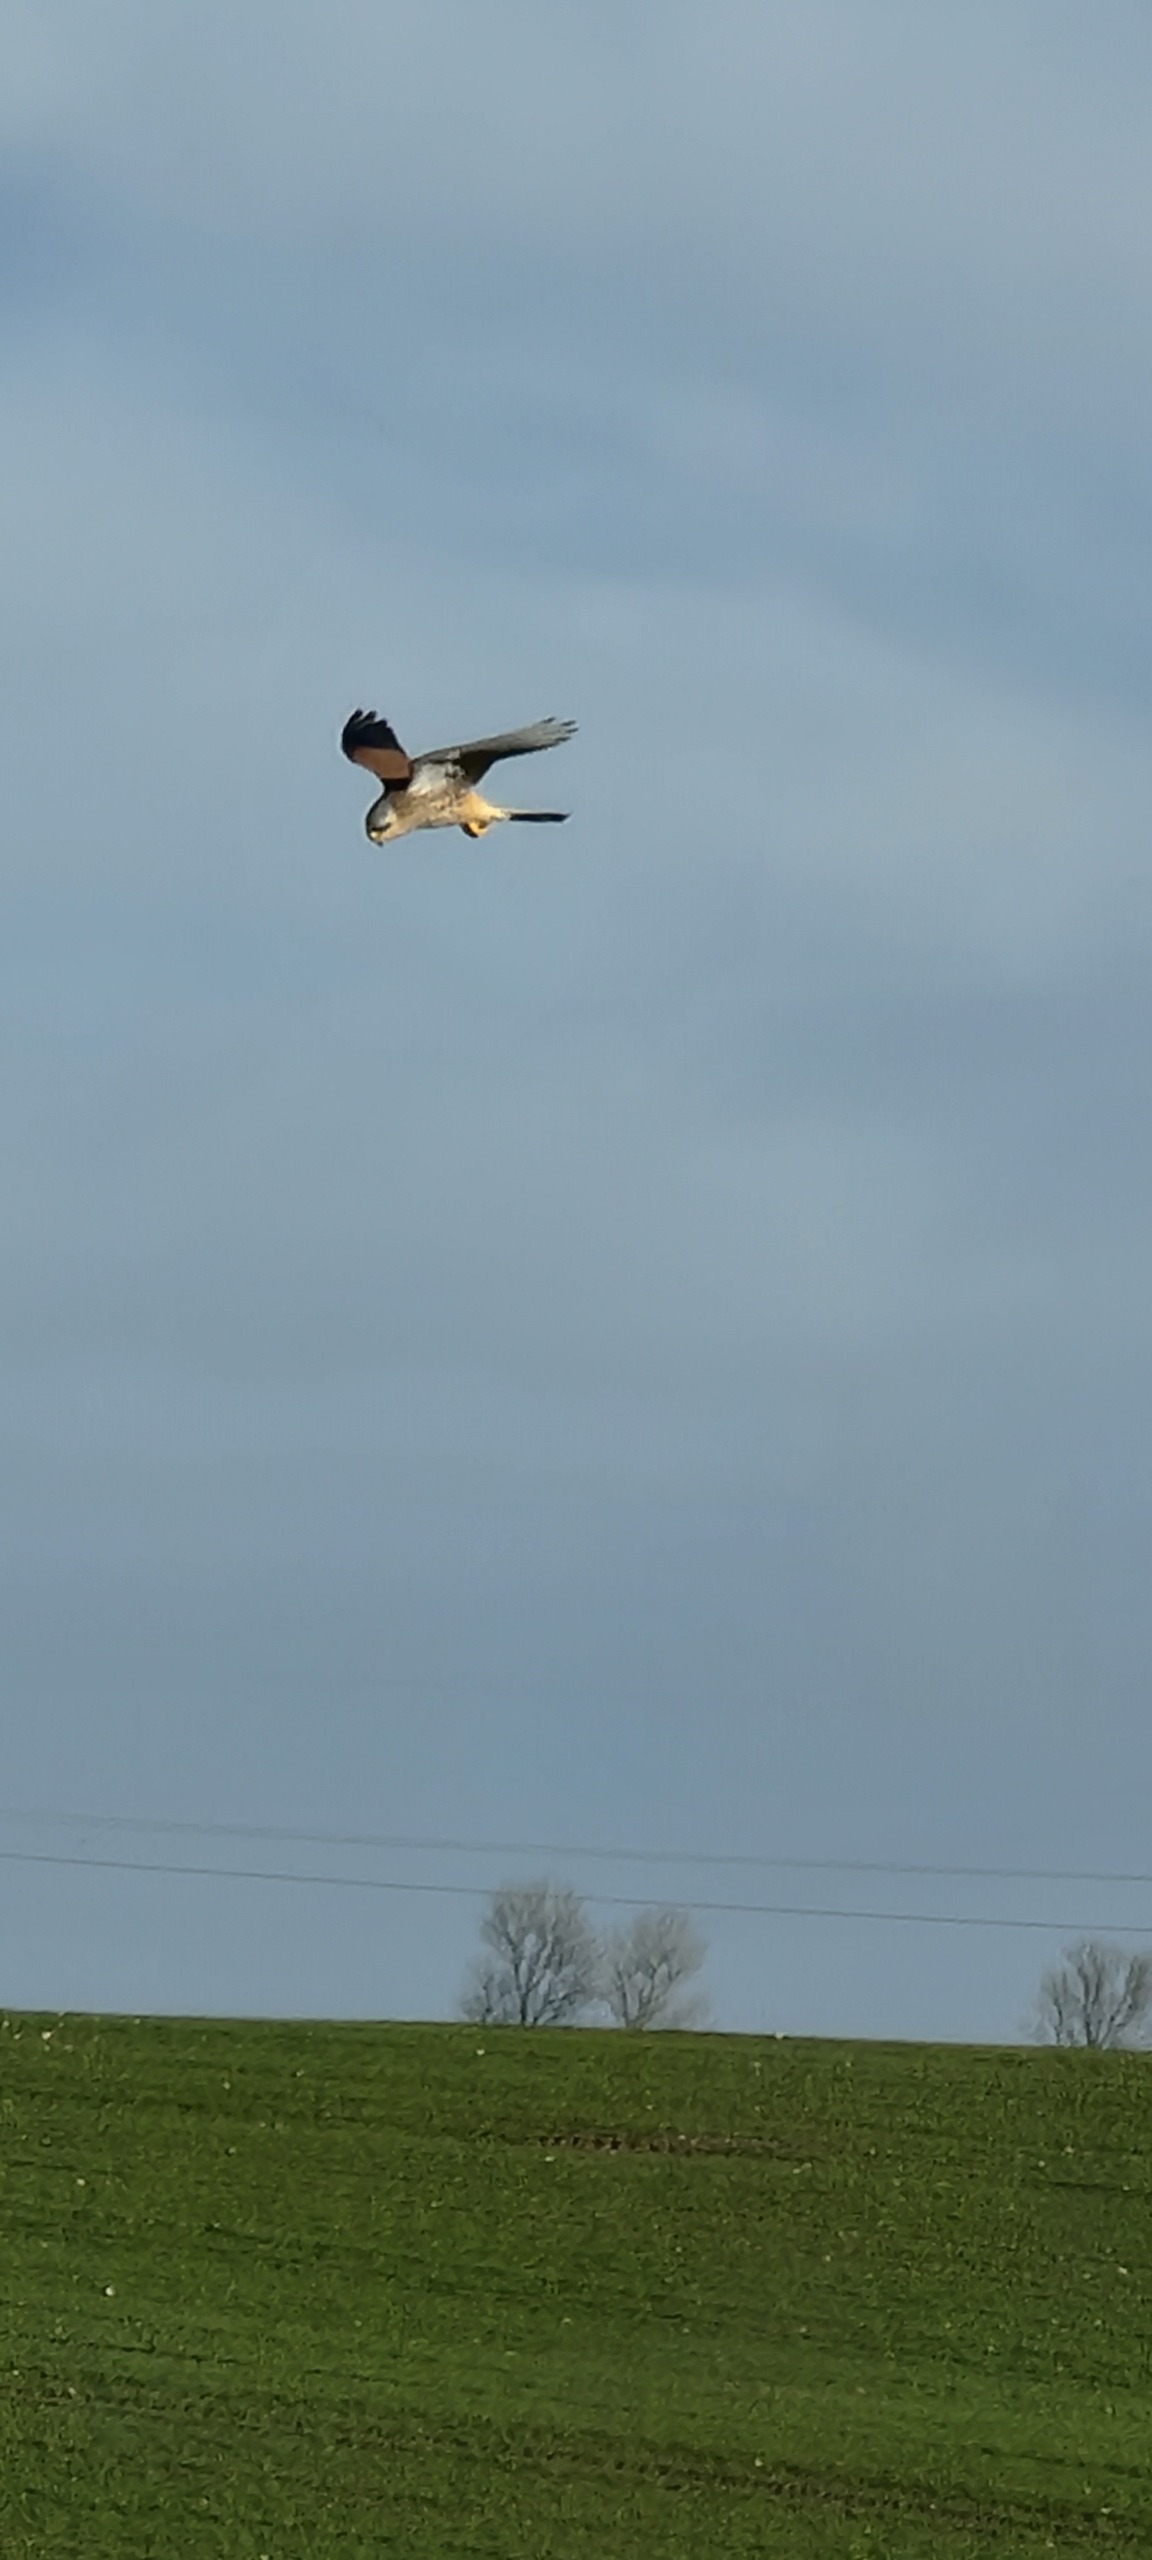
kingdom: Animalia
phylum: Chordata
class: Aves
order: Falconiformes
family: Falconidae
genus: Falco
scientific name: Falco tinnunculus
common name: Tårnfalk
